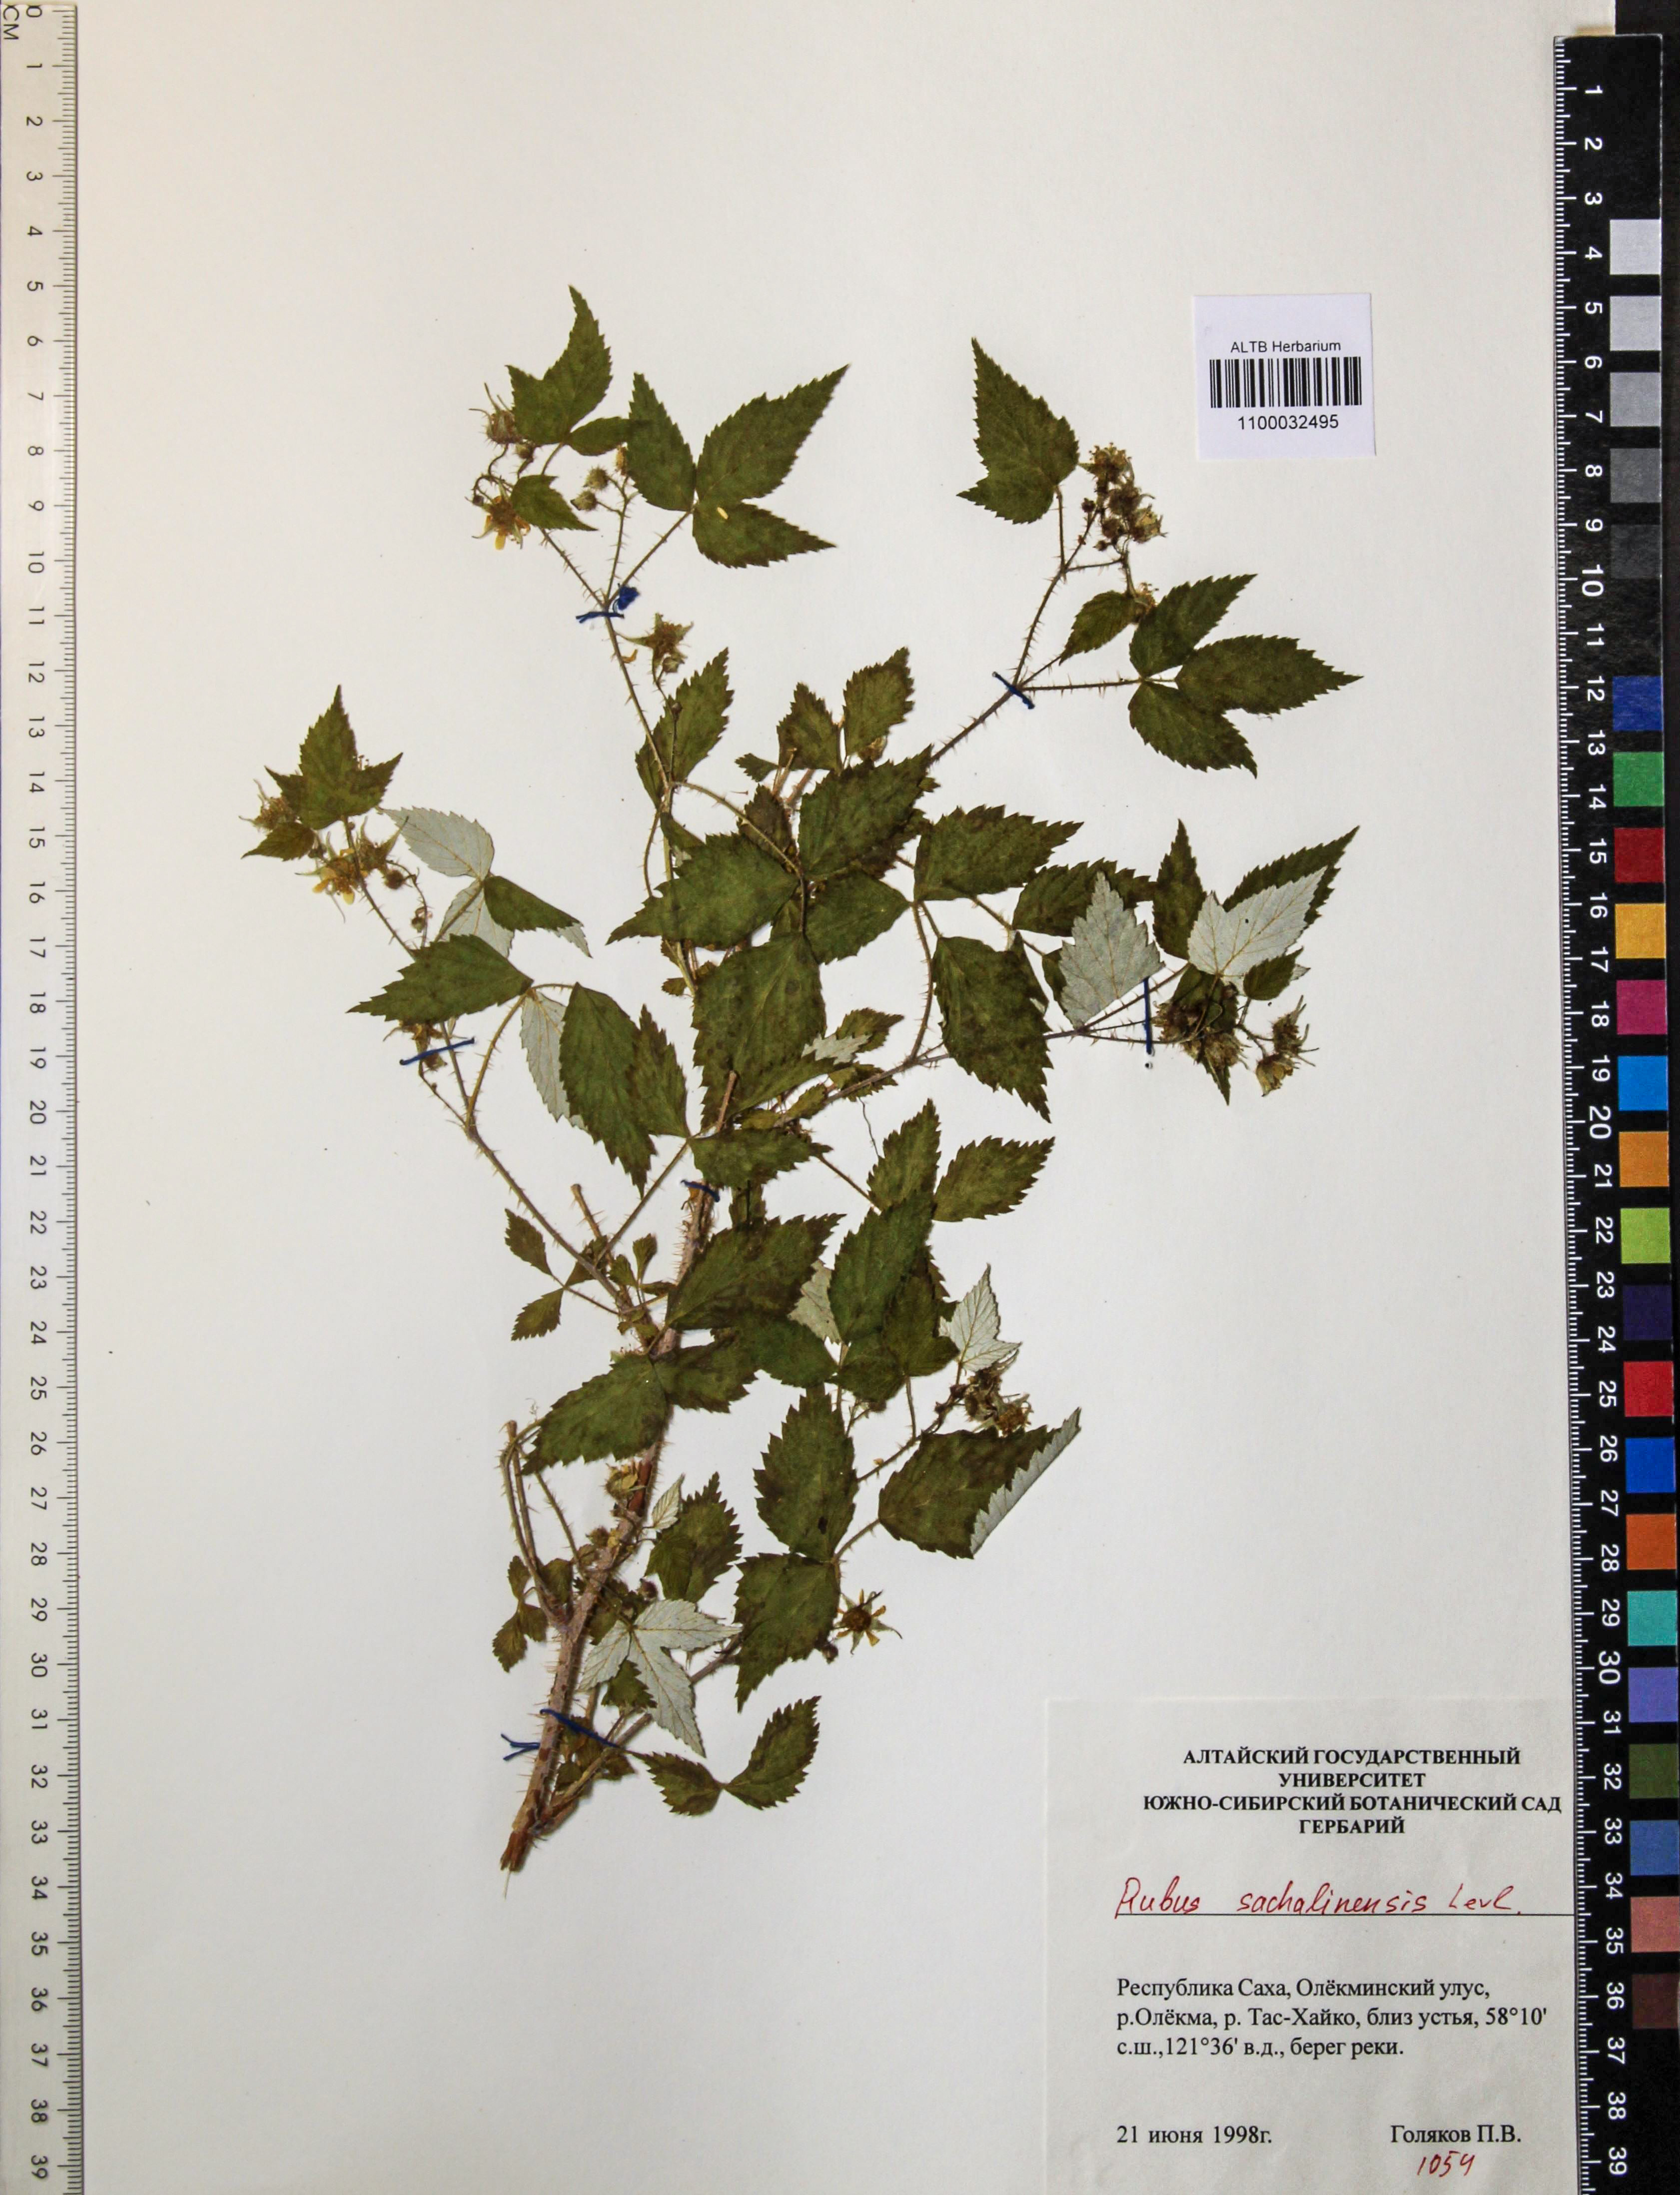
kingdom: Plantae
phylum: Tracheophyta
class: Magnoliopsida
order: Rosales
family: Rosaceae
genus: Rubus
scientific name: Rubus sachalinensis
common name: Red raspberry
